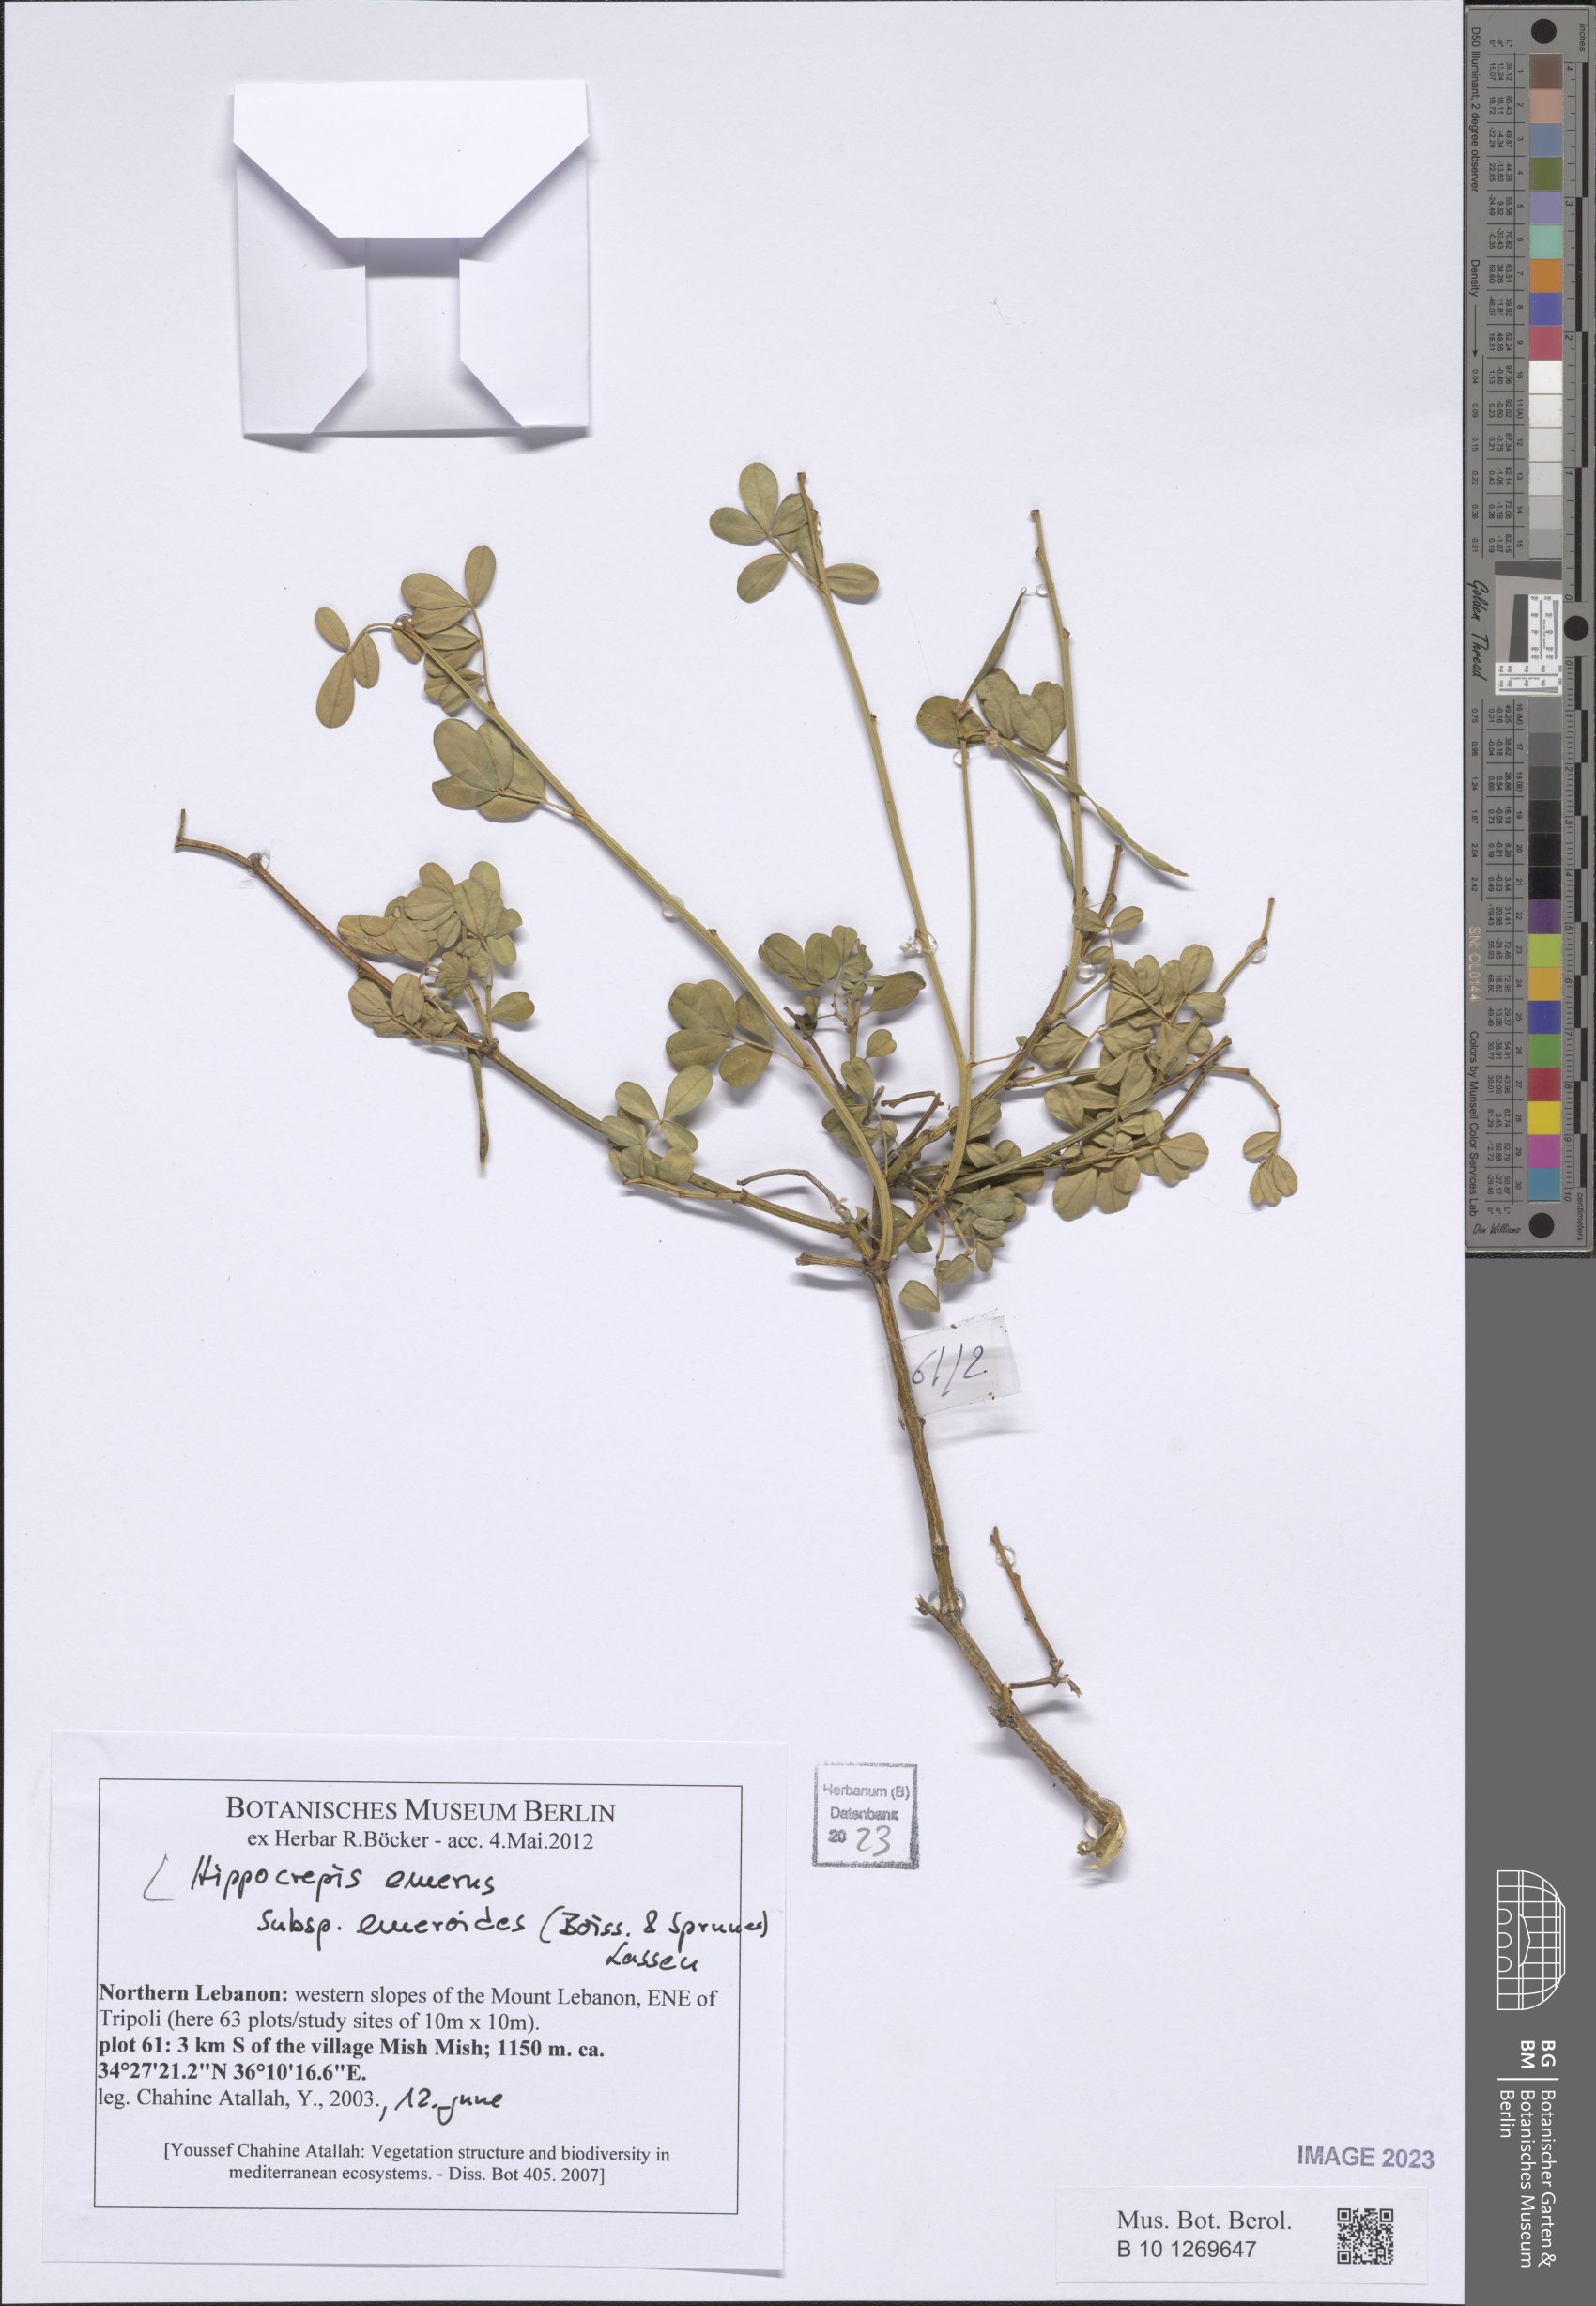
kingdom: Plantae
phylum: Tracheophyta
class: Magnoliopsida
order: Fabales
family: Fabaceae
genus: Hippocrepis
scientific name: Hippocrepis emerus
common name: Scorpion senna
